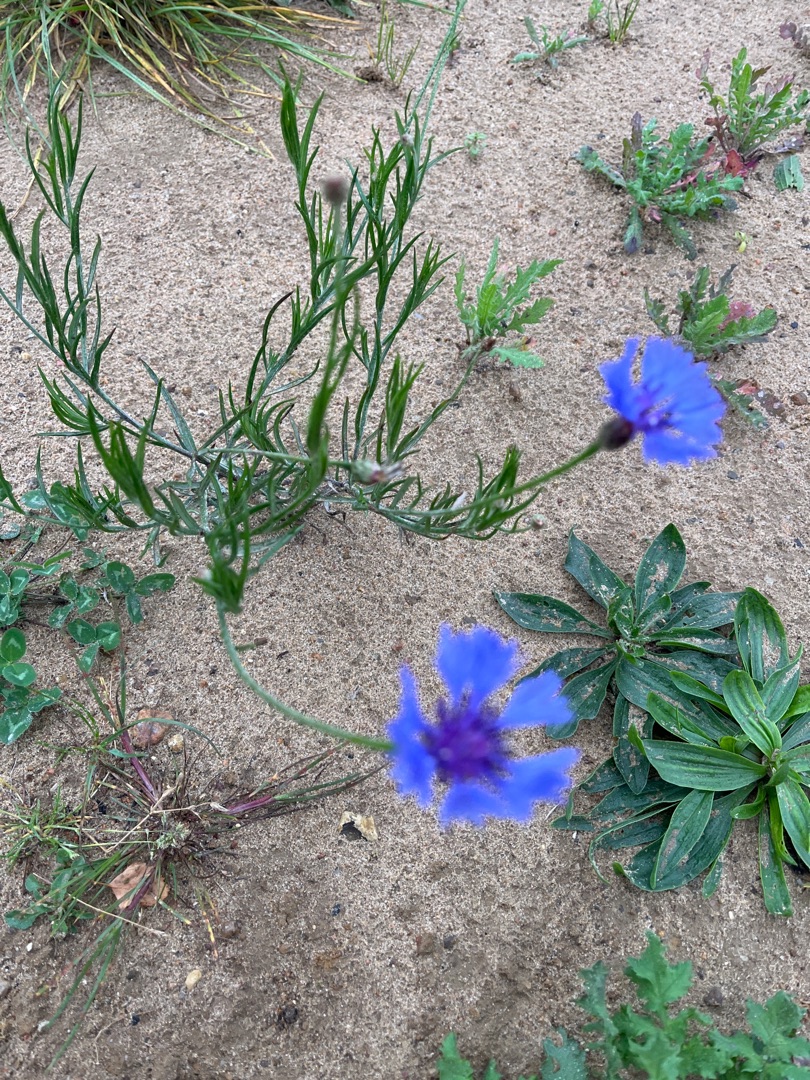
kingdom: Plantae
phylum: Tracheophyta
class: Magnoliopsida
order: Asterales
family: Asteraceae
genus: Centaurea
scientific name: Centaurea cyanus
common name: Kornblomst
